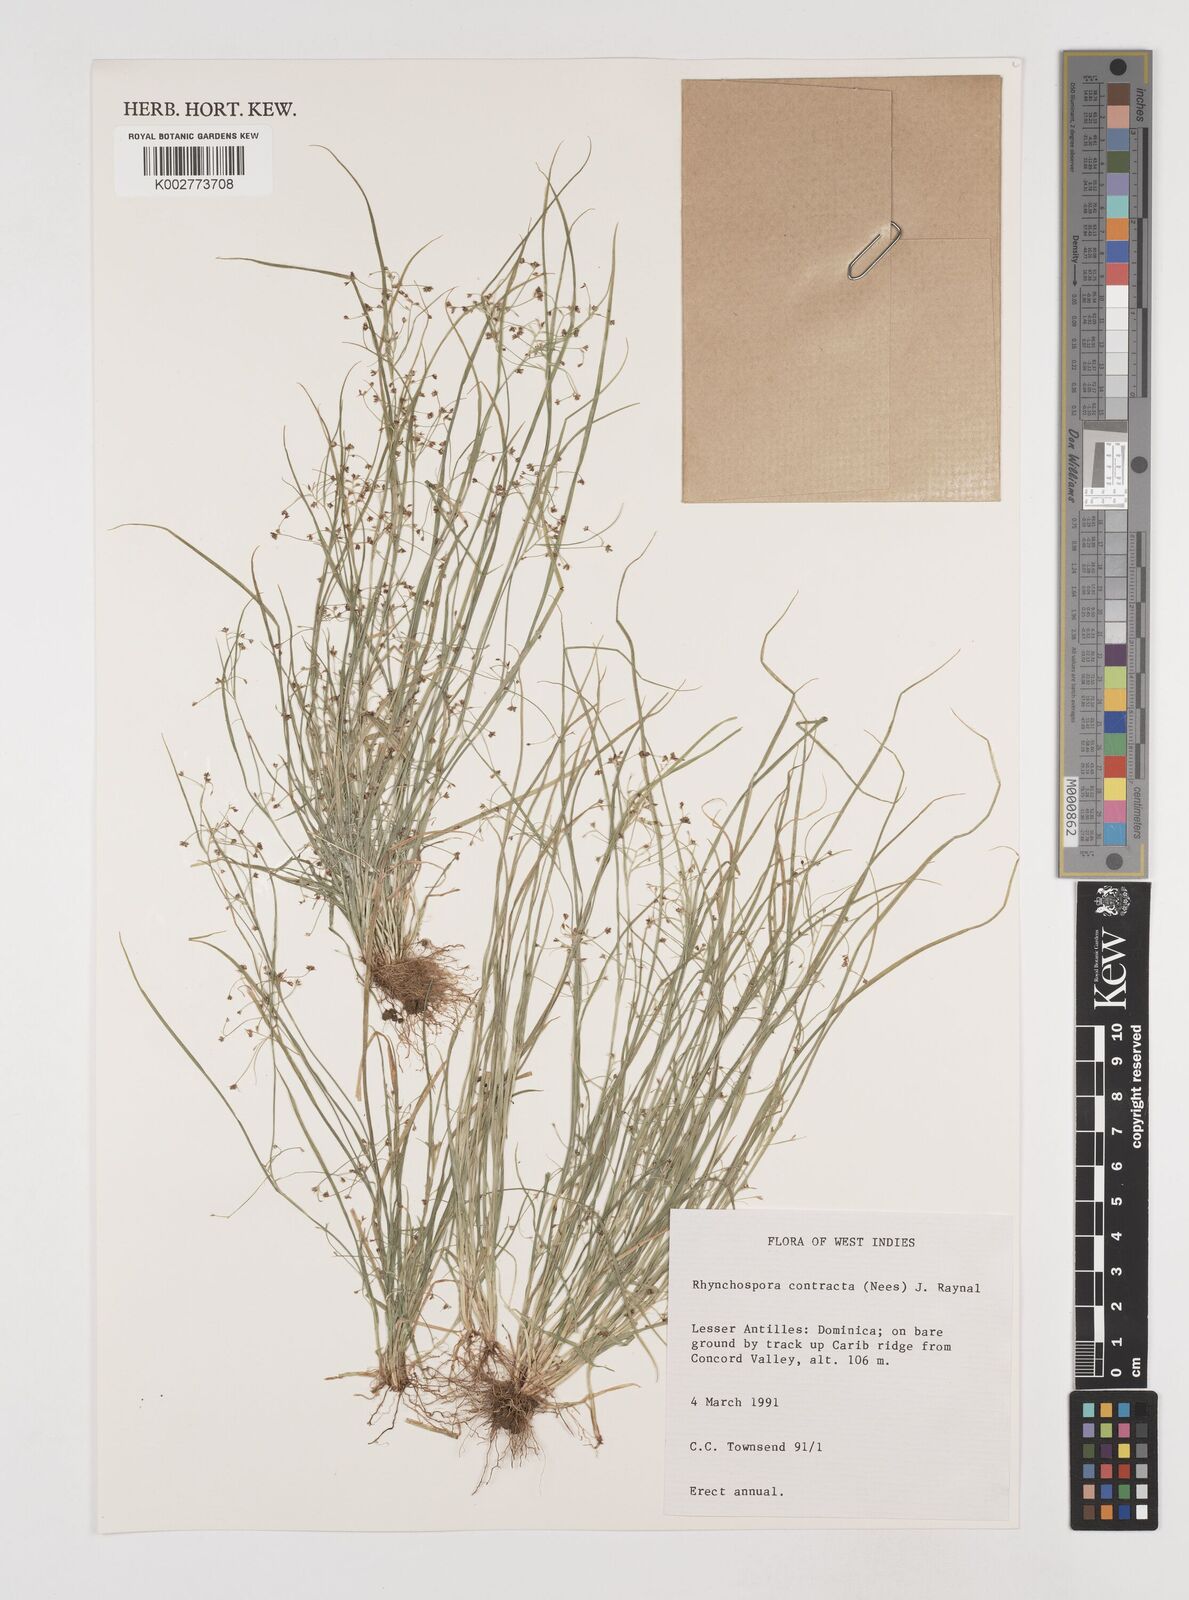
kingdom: Plantae
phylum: Tracheophyta
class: Liliopsida
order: Poales
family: Cyperaceae
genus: Rhynchospora
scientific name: Rhynchospora contracta
